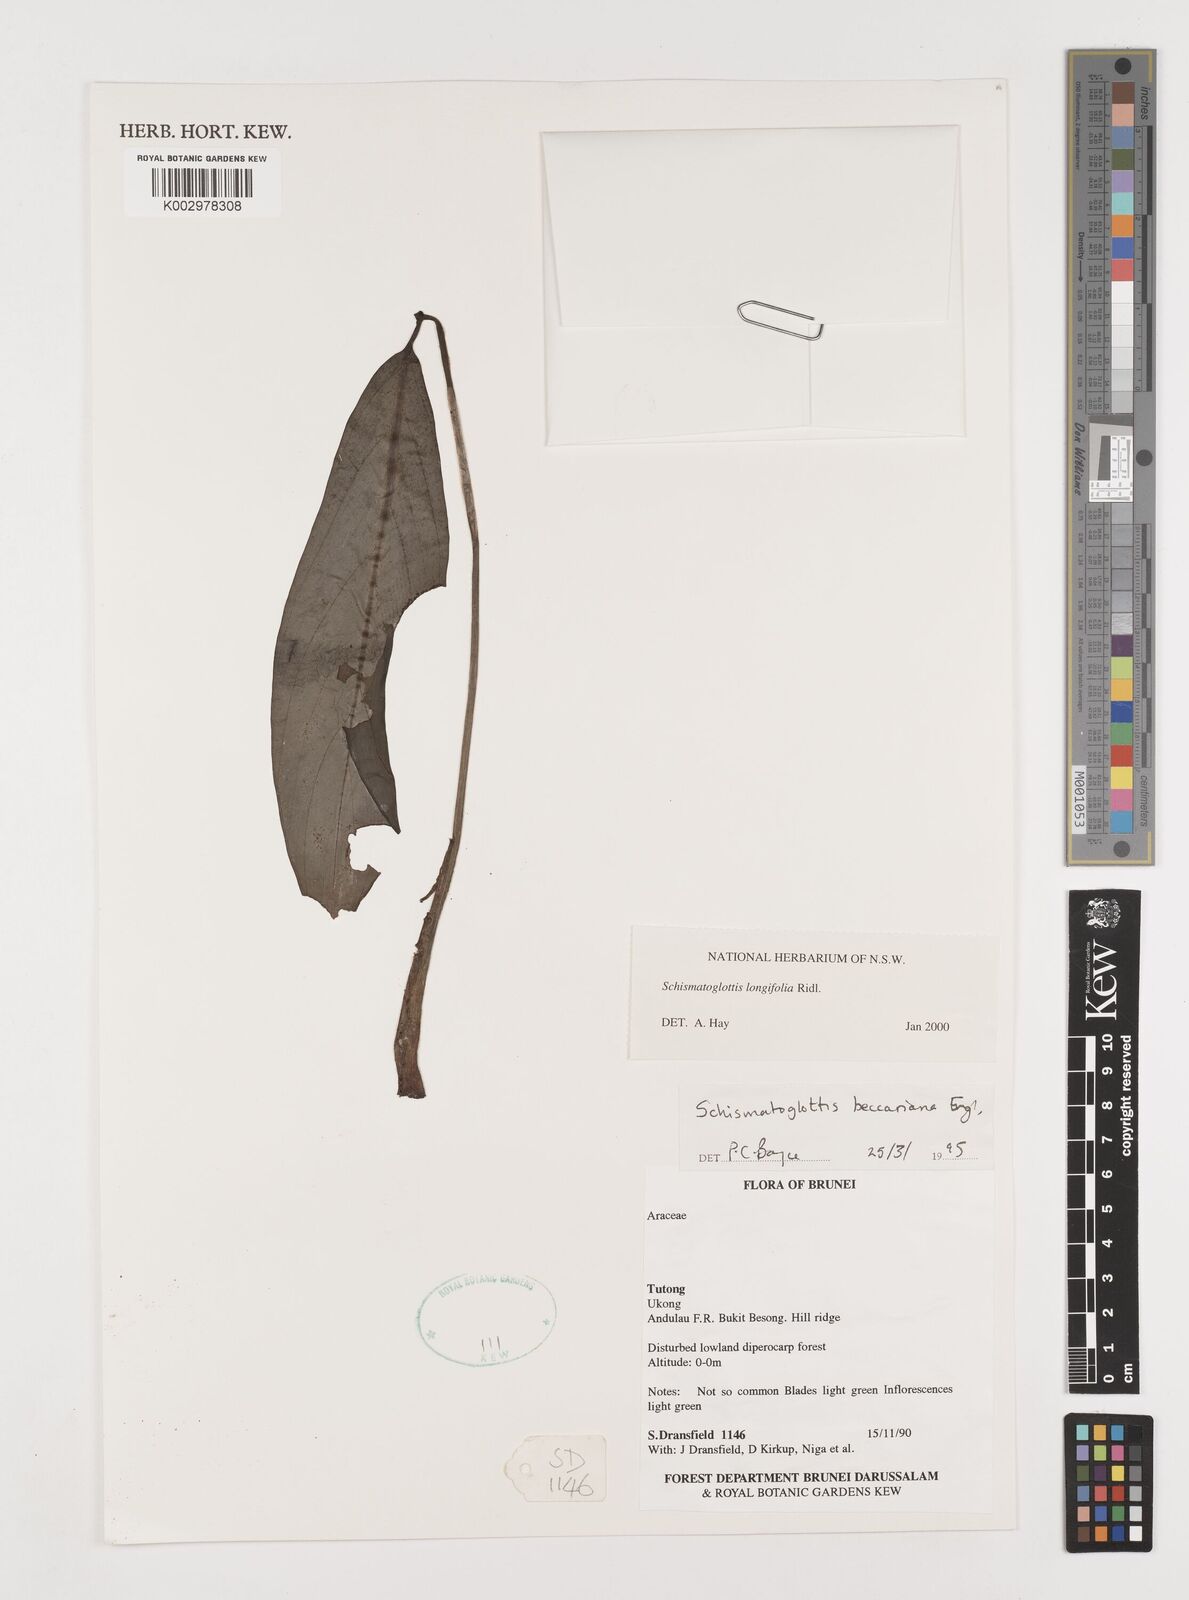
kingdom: Plantae
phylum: Tracheophyta
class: Liliopsida
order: Alismatales
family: Araceae
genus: Vesta
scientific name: Vesta longifolia
